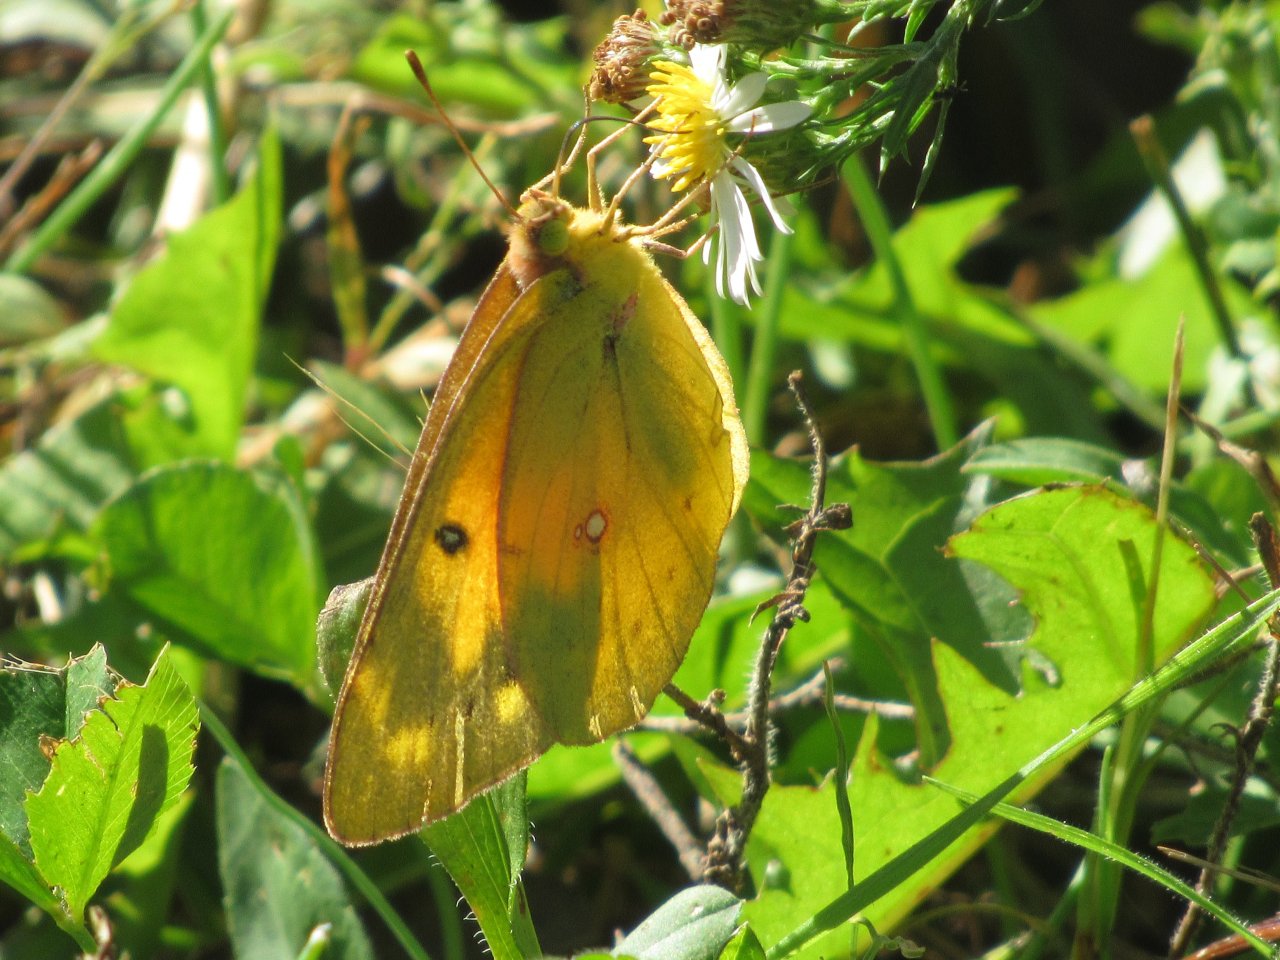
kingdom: Animalia
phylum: Arthropoda
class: Insecta
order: Lepidoptera
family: Pieridae
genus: Colias
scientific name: Colias eurytheme
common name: Orange Sulphur
